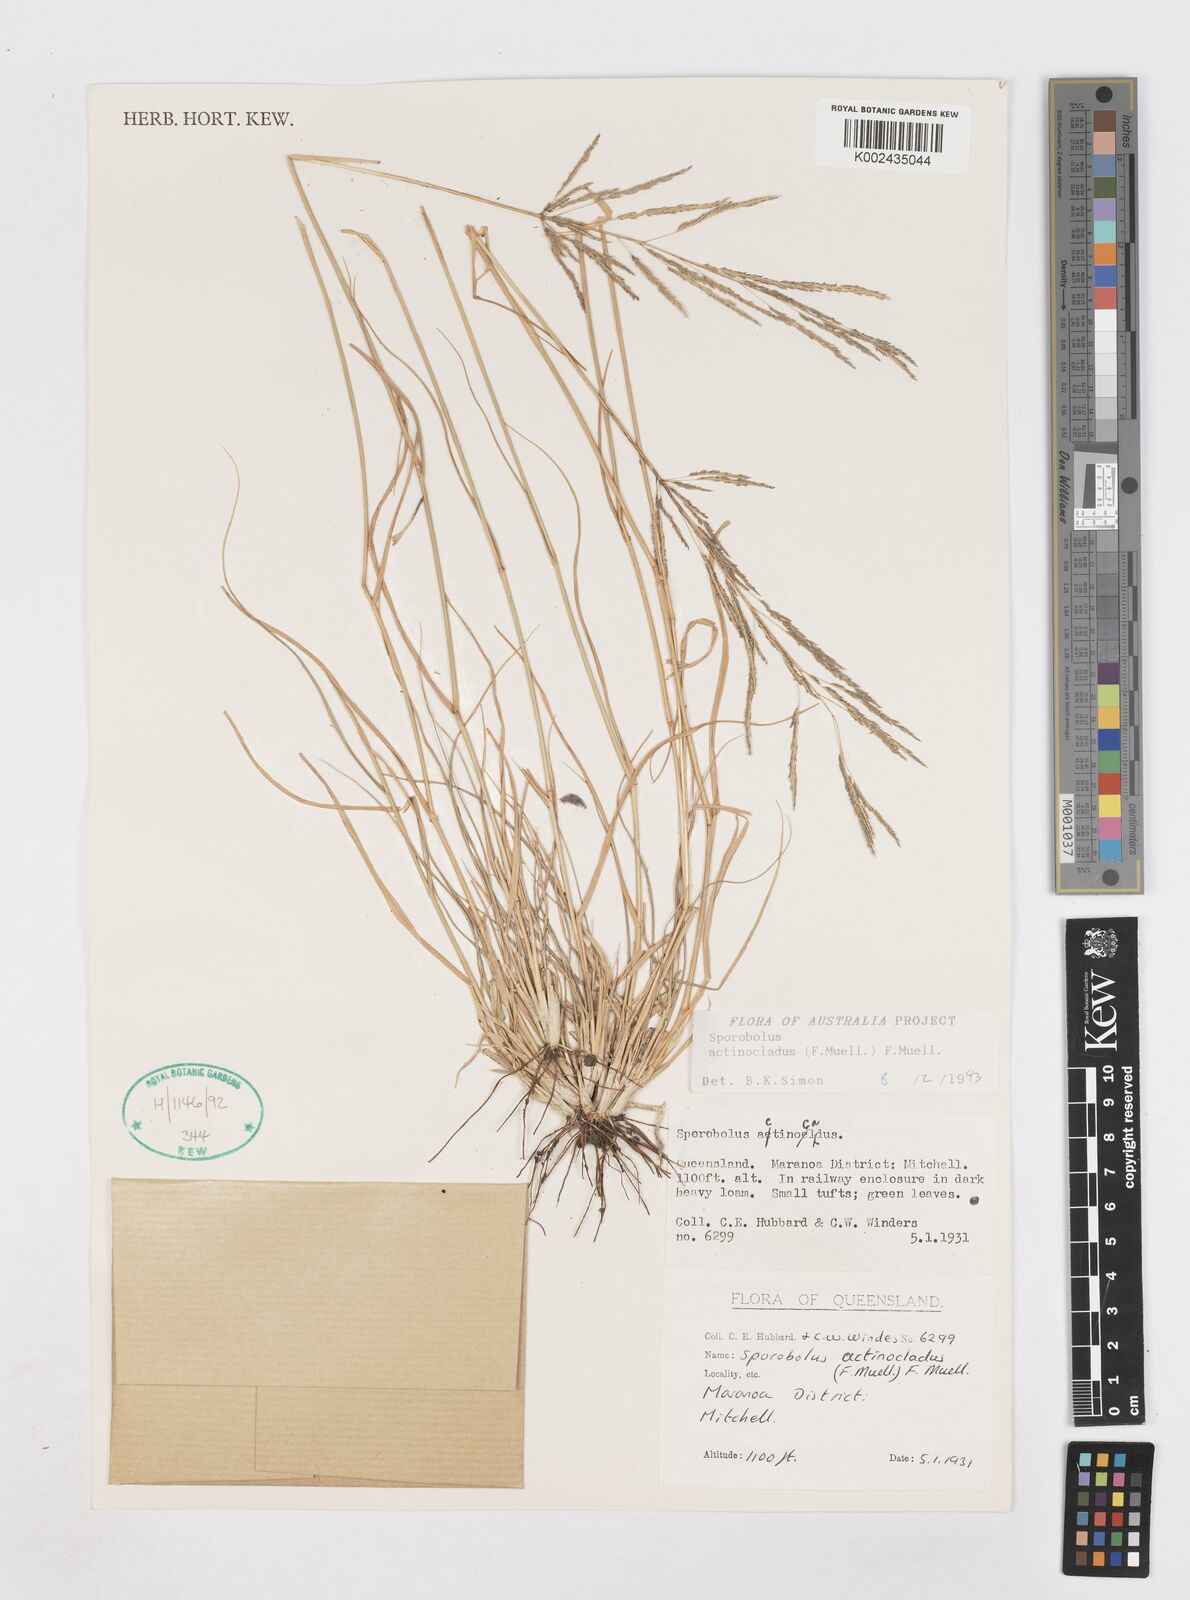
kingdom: Plantae
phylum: Tracheophyta
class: Liliopsida
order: Poales
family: Poaceae
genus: Sporobolus
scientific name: Sporobolus actinocladus
